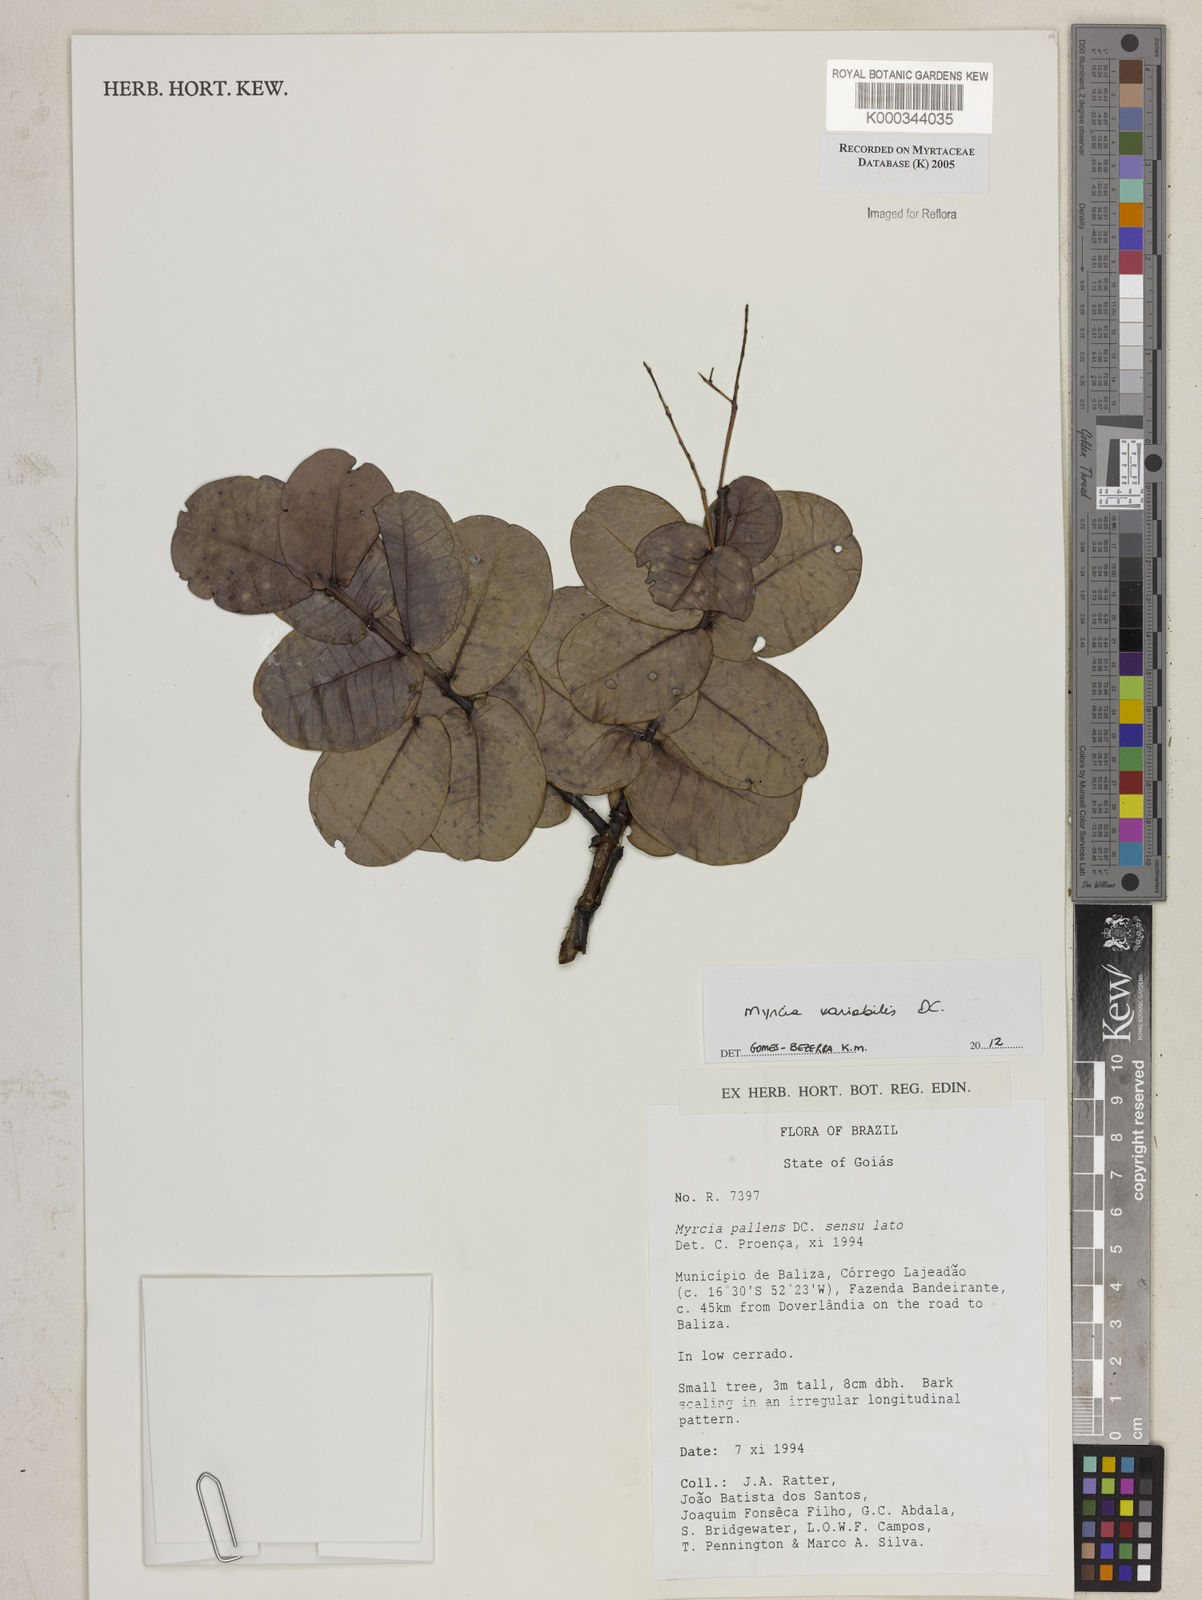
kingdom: Plantae
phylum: Tracheophyta
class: Magnoliopsida
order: Myrtales
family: Myrtaceae
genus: Myrcia
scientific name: Myrcia guianensis
